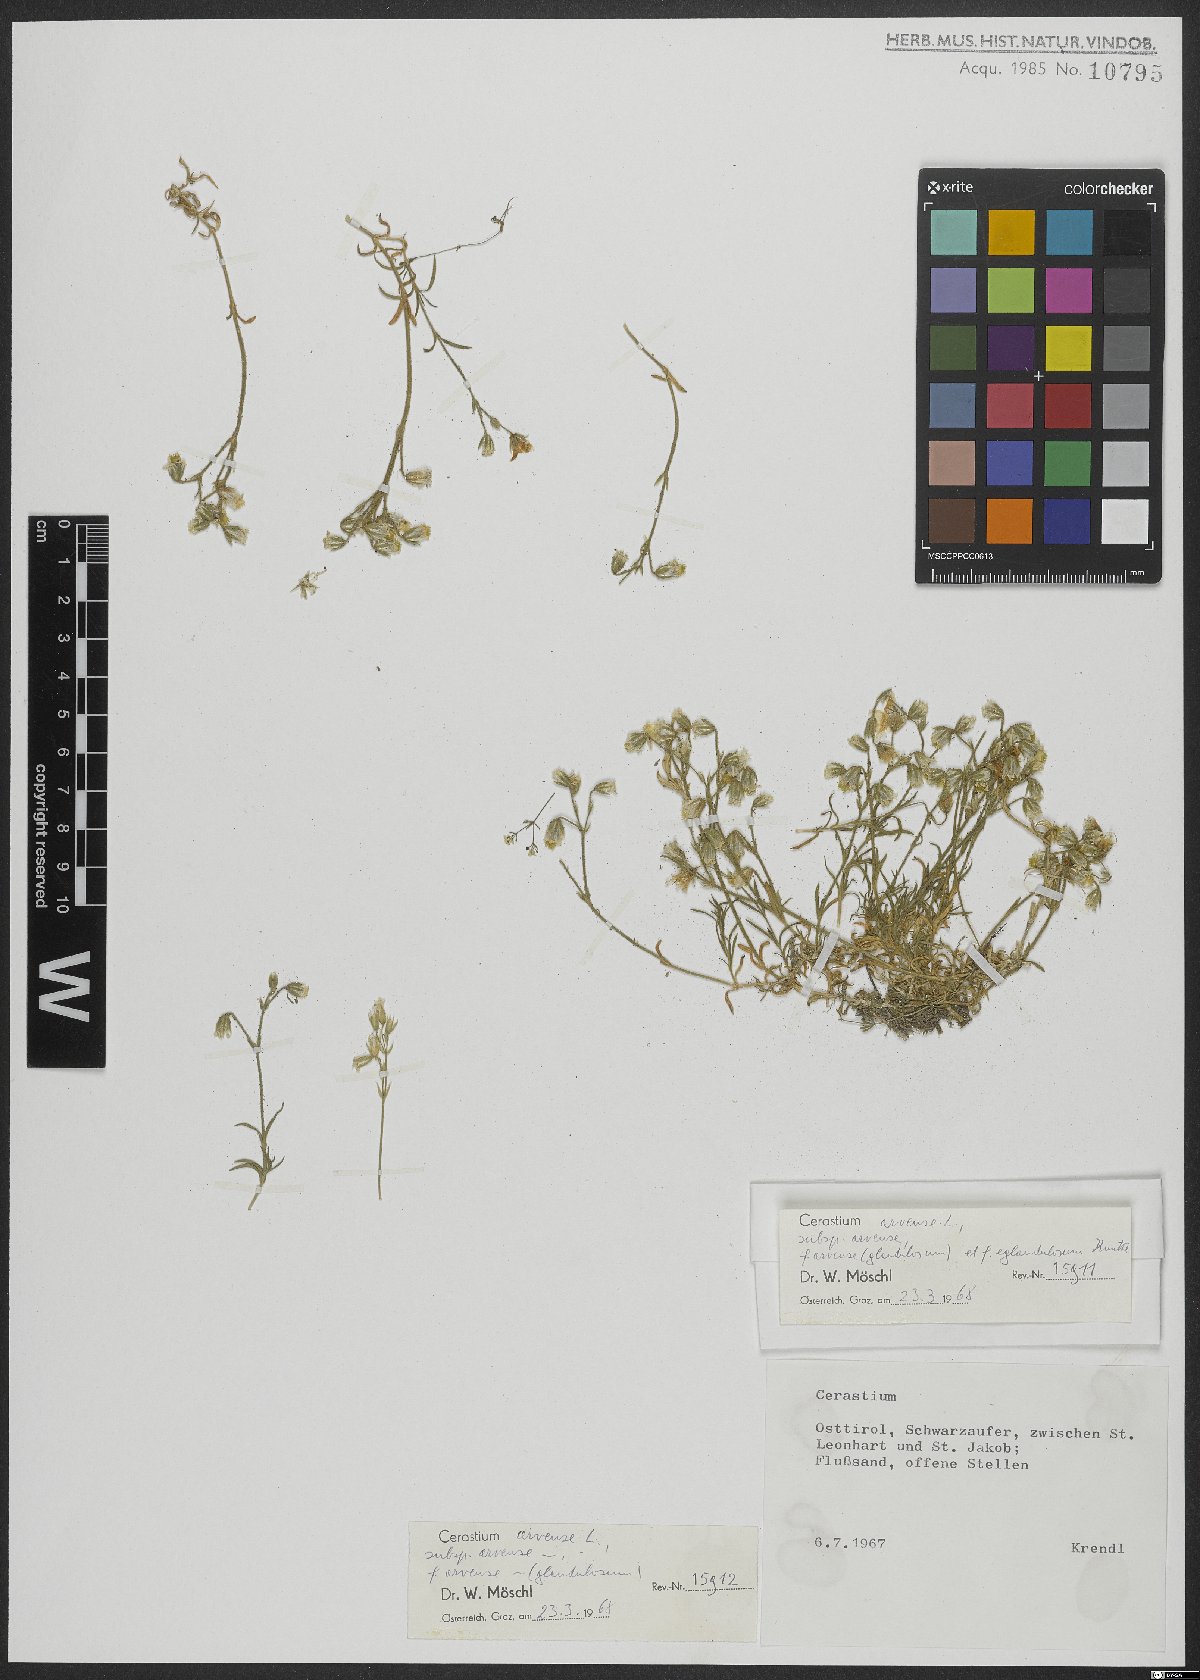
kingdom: Plantae
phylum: Tracheophyta
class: Magnoliopsida
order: Caryophyllales
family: Caryophyllaceae
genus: Cerastium
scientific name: Cerastium arvense
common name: Field mouse-ear
